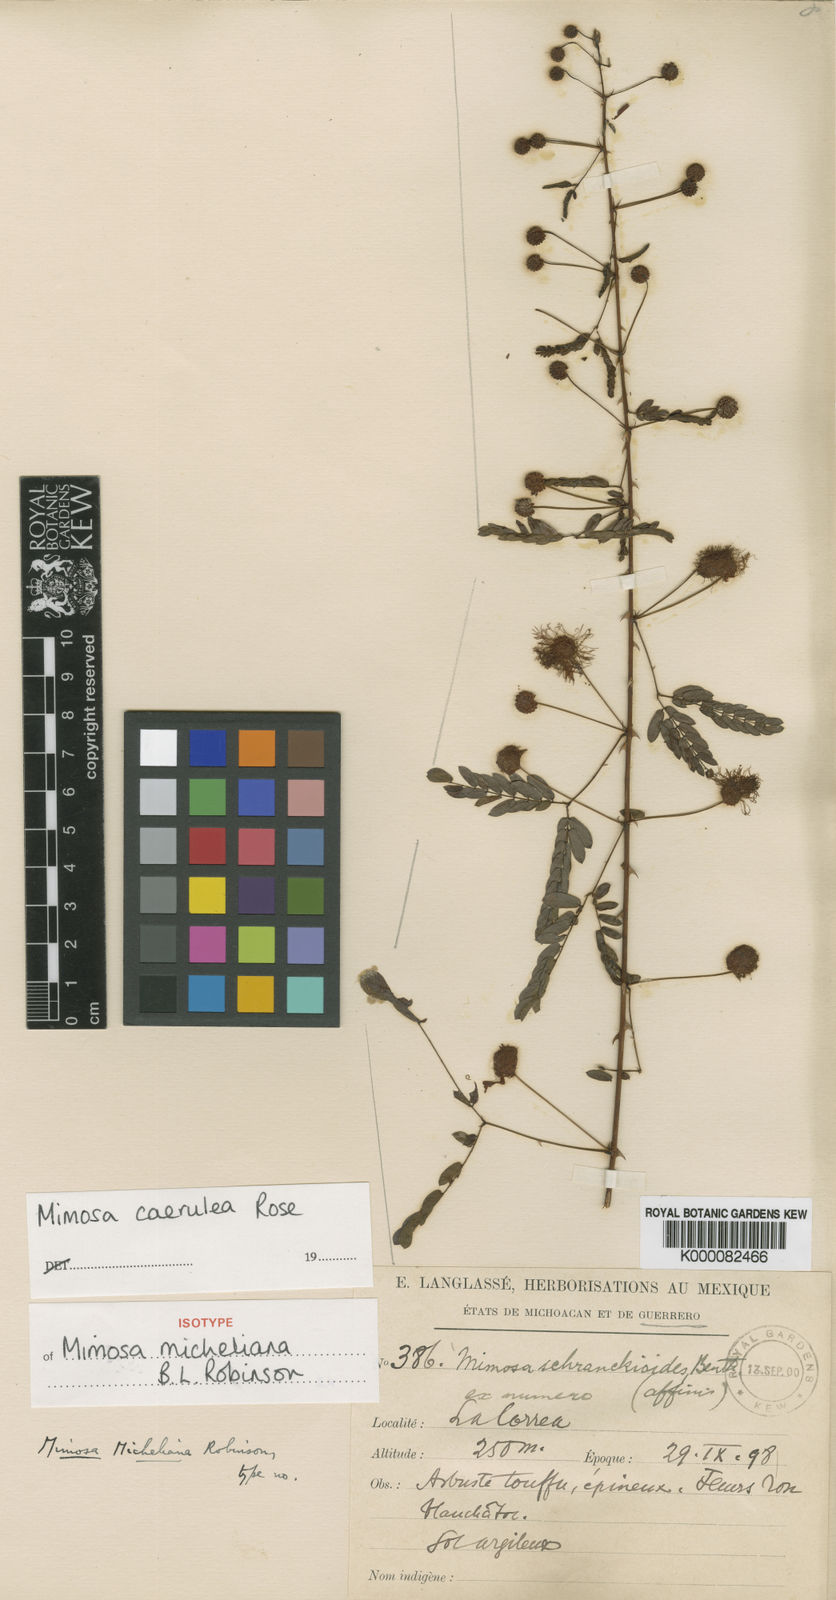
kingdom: Plantae
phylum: Tracheophyta
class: Magnoliopsida
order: Fabales
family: Fabaceae
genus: Mimosa
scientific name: Mimosa caerulea
